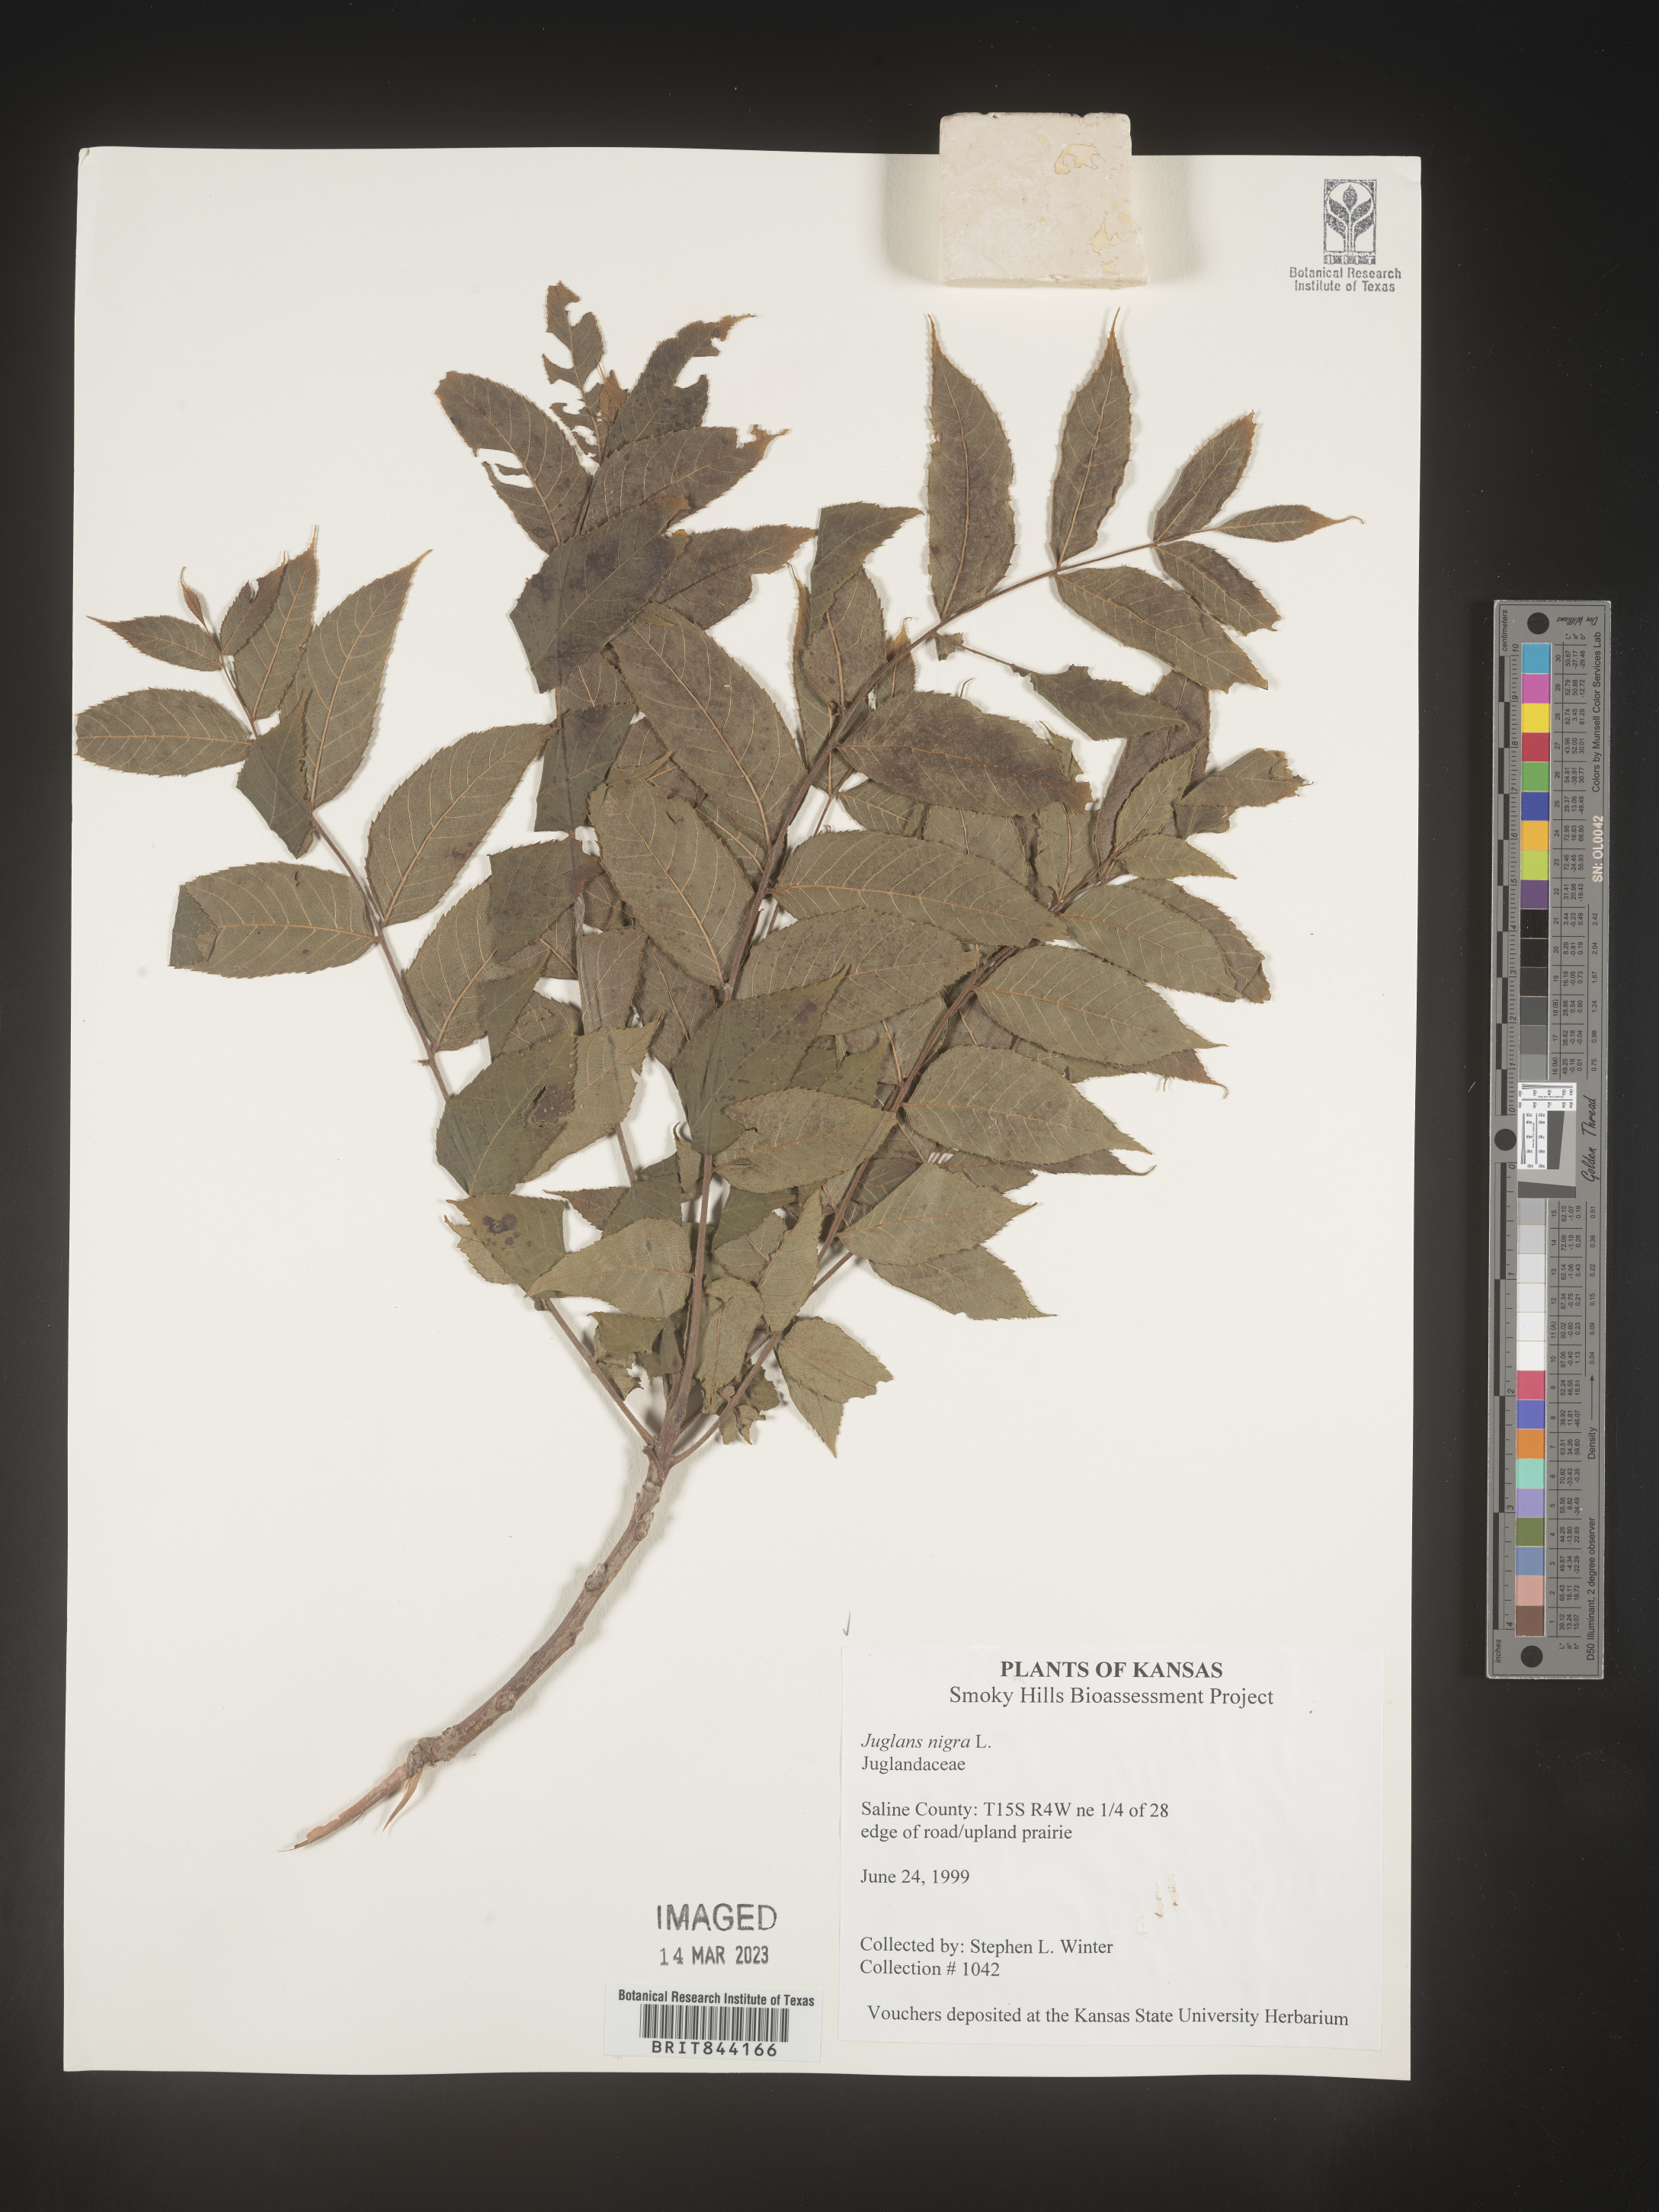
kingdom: Plantae
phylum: Tracheophyta
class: Magnoliopsida
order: Fagales
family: Juglandaceae
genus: Juglans
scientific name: Juglans nigra
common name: Black walnut
